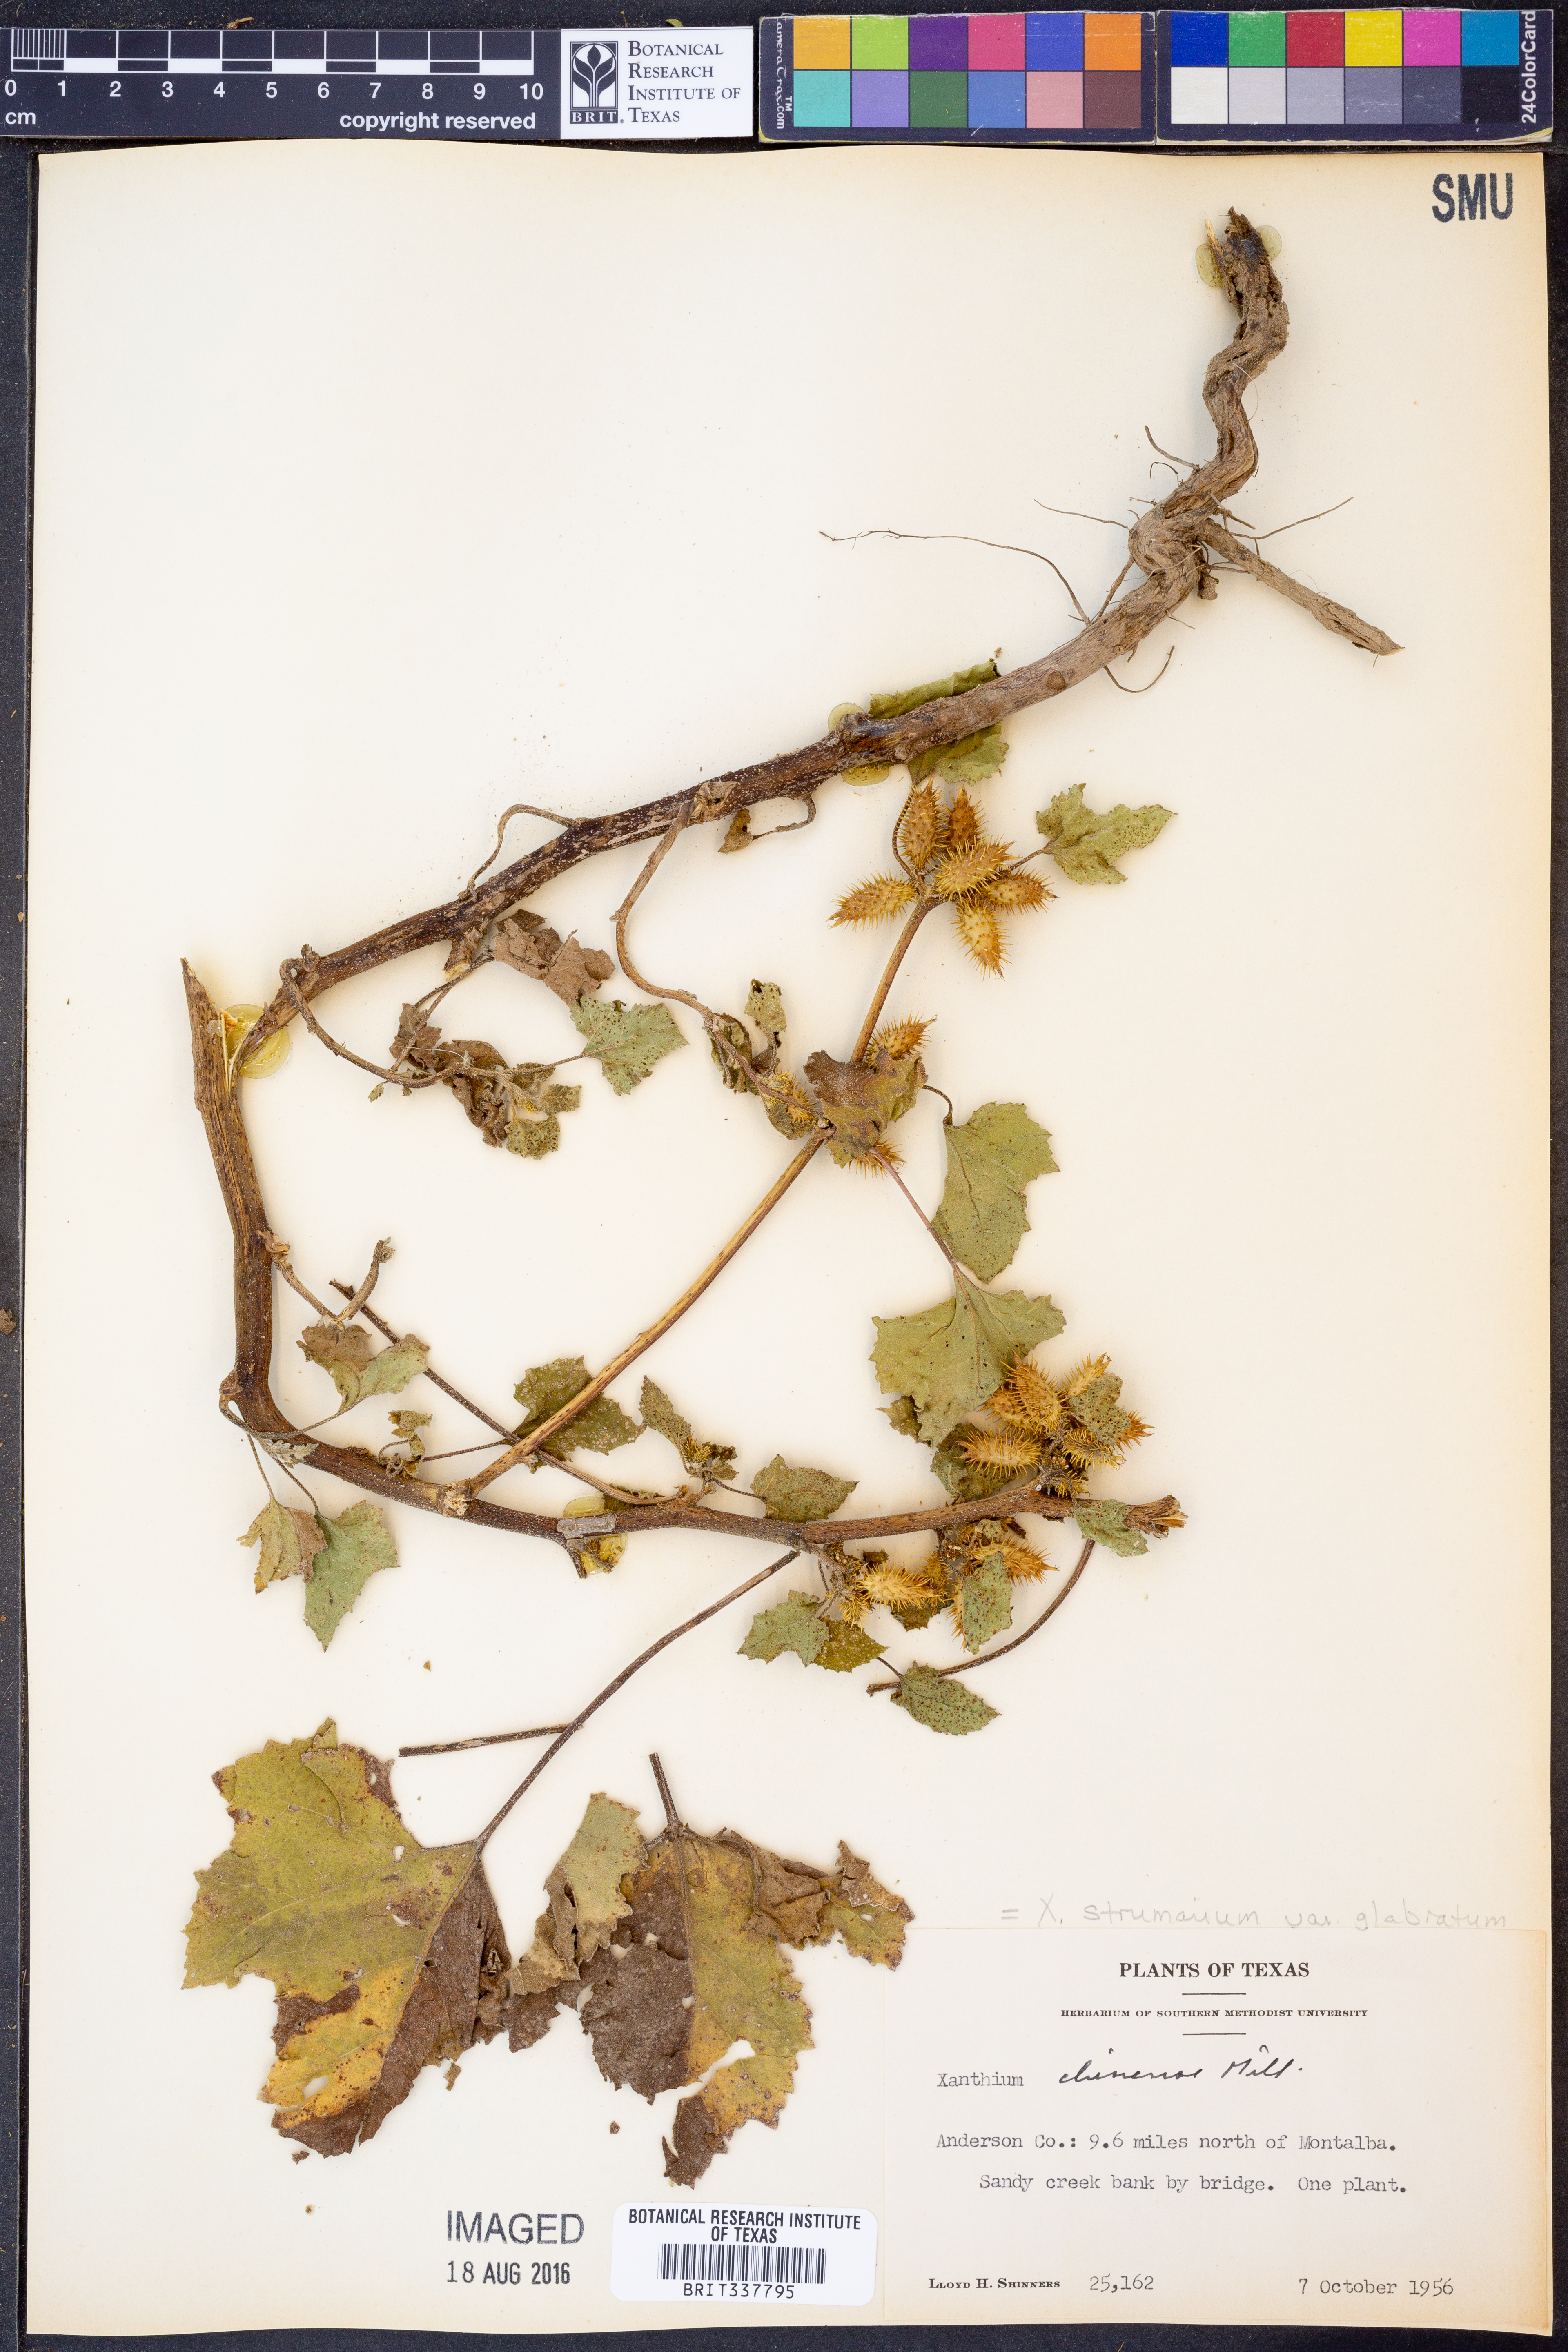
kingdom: Plantae
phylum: Tracheophyta
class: Magnoliopsida
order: Asterales
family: Asteraceae
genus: Xanthium
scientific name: Xanthium occidentale
